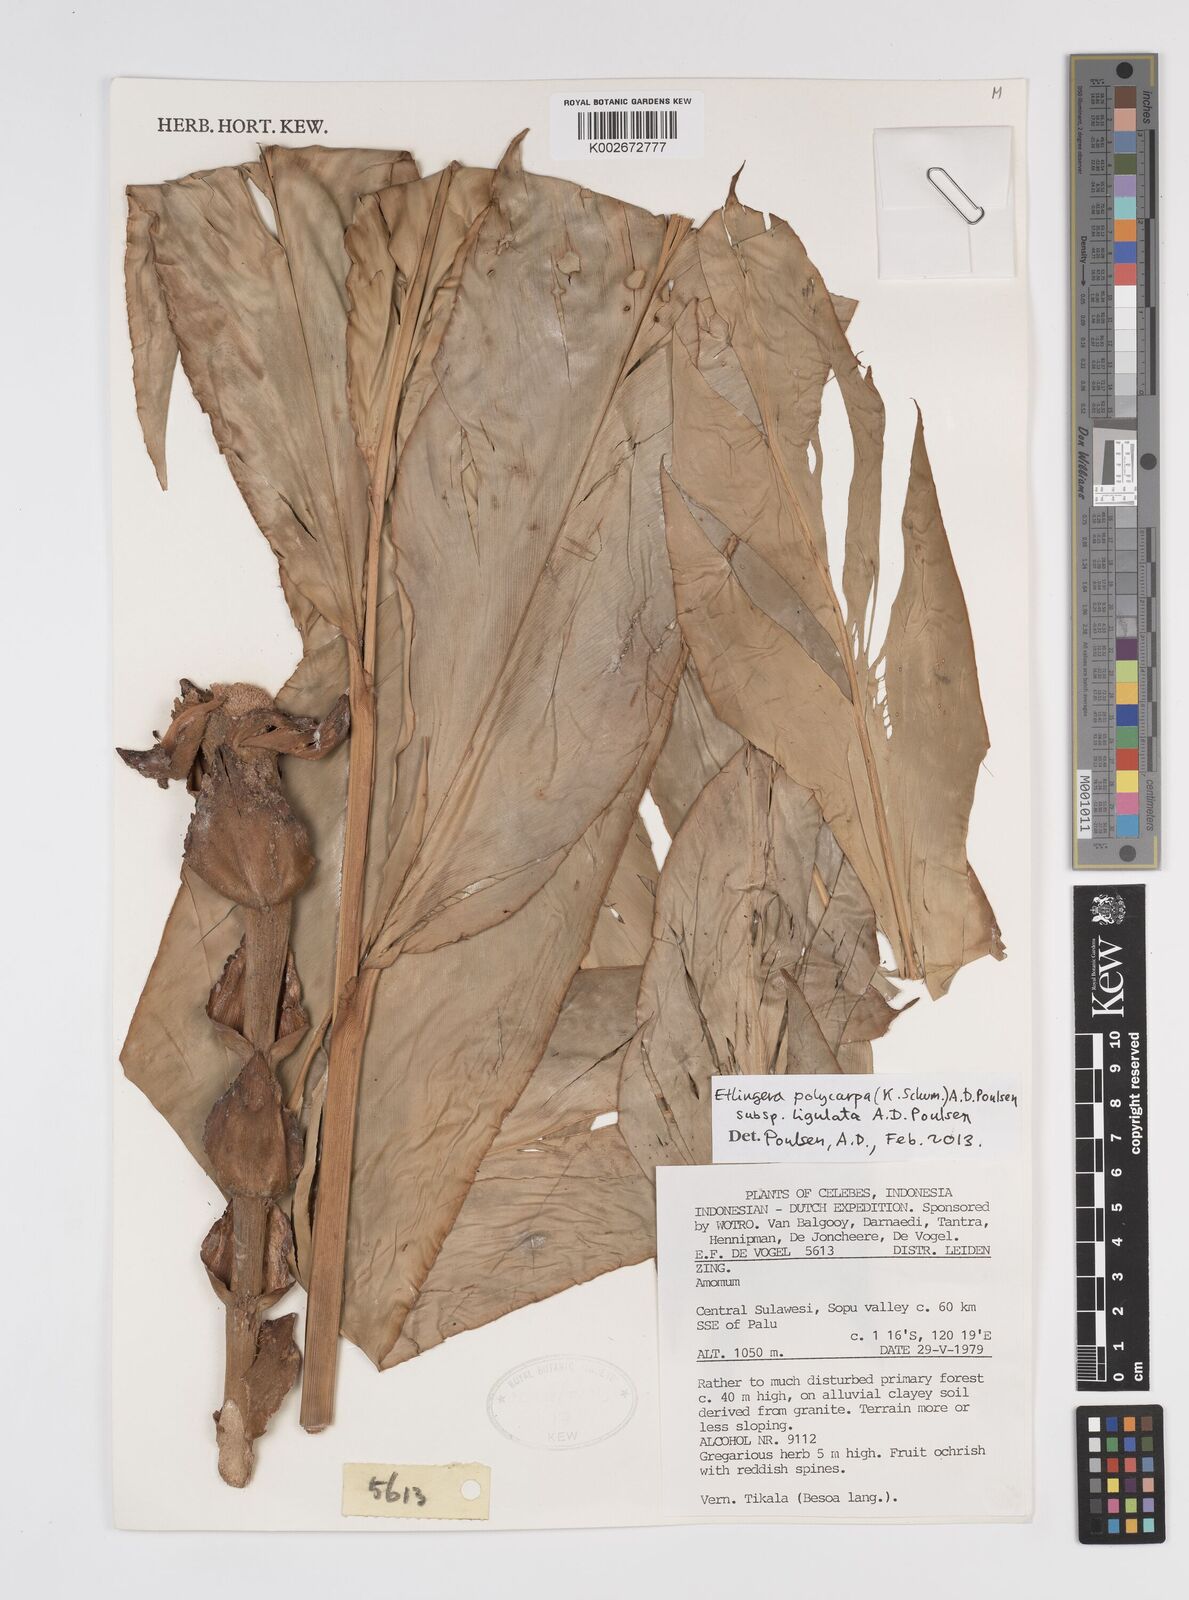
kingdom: Plantae
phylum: Tracheophyta
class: Liliopsida
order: Zingiberales
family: Zingiberaceae
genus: Etlingera
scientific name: Etlingera polycarpa
